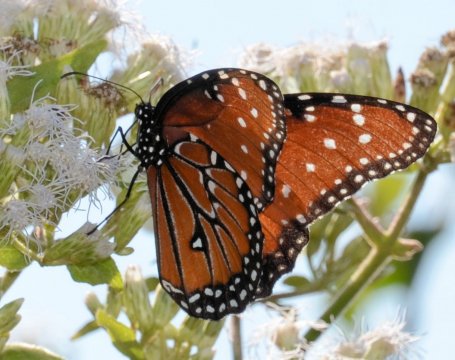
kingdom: Animalia
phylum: Arthropoda
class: Insecta
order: Lepidoptera
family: Nymphalidae
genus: Danaus
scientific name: Danaus gilippus
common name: Queen
